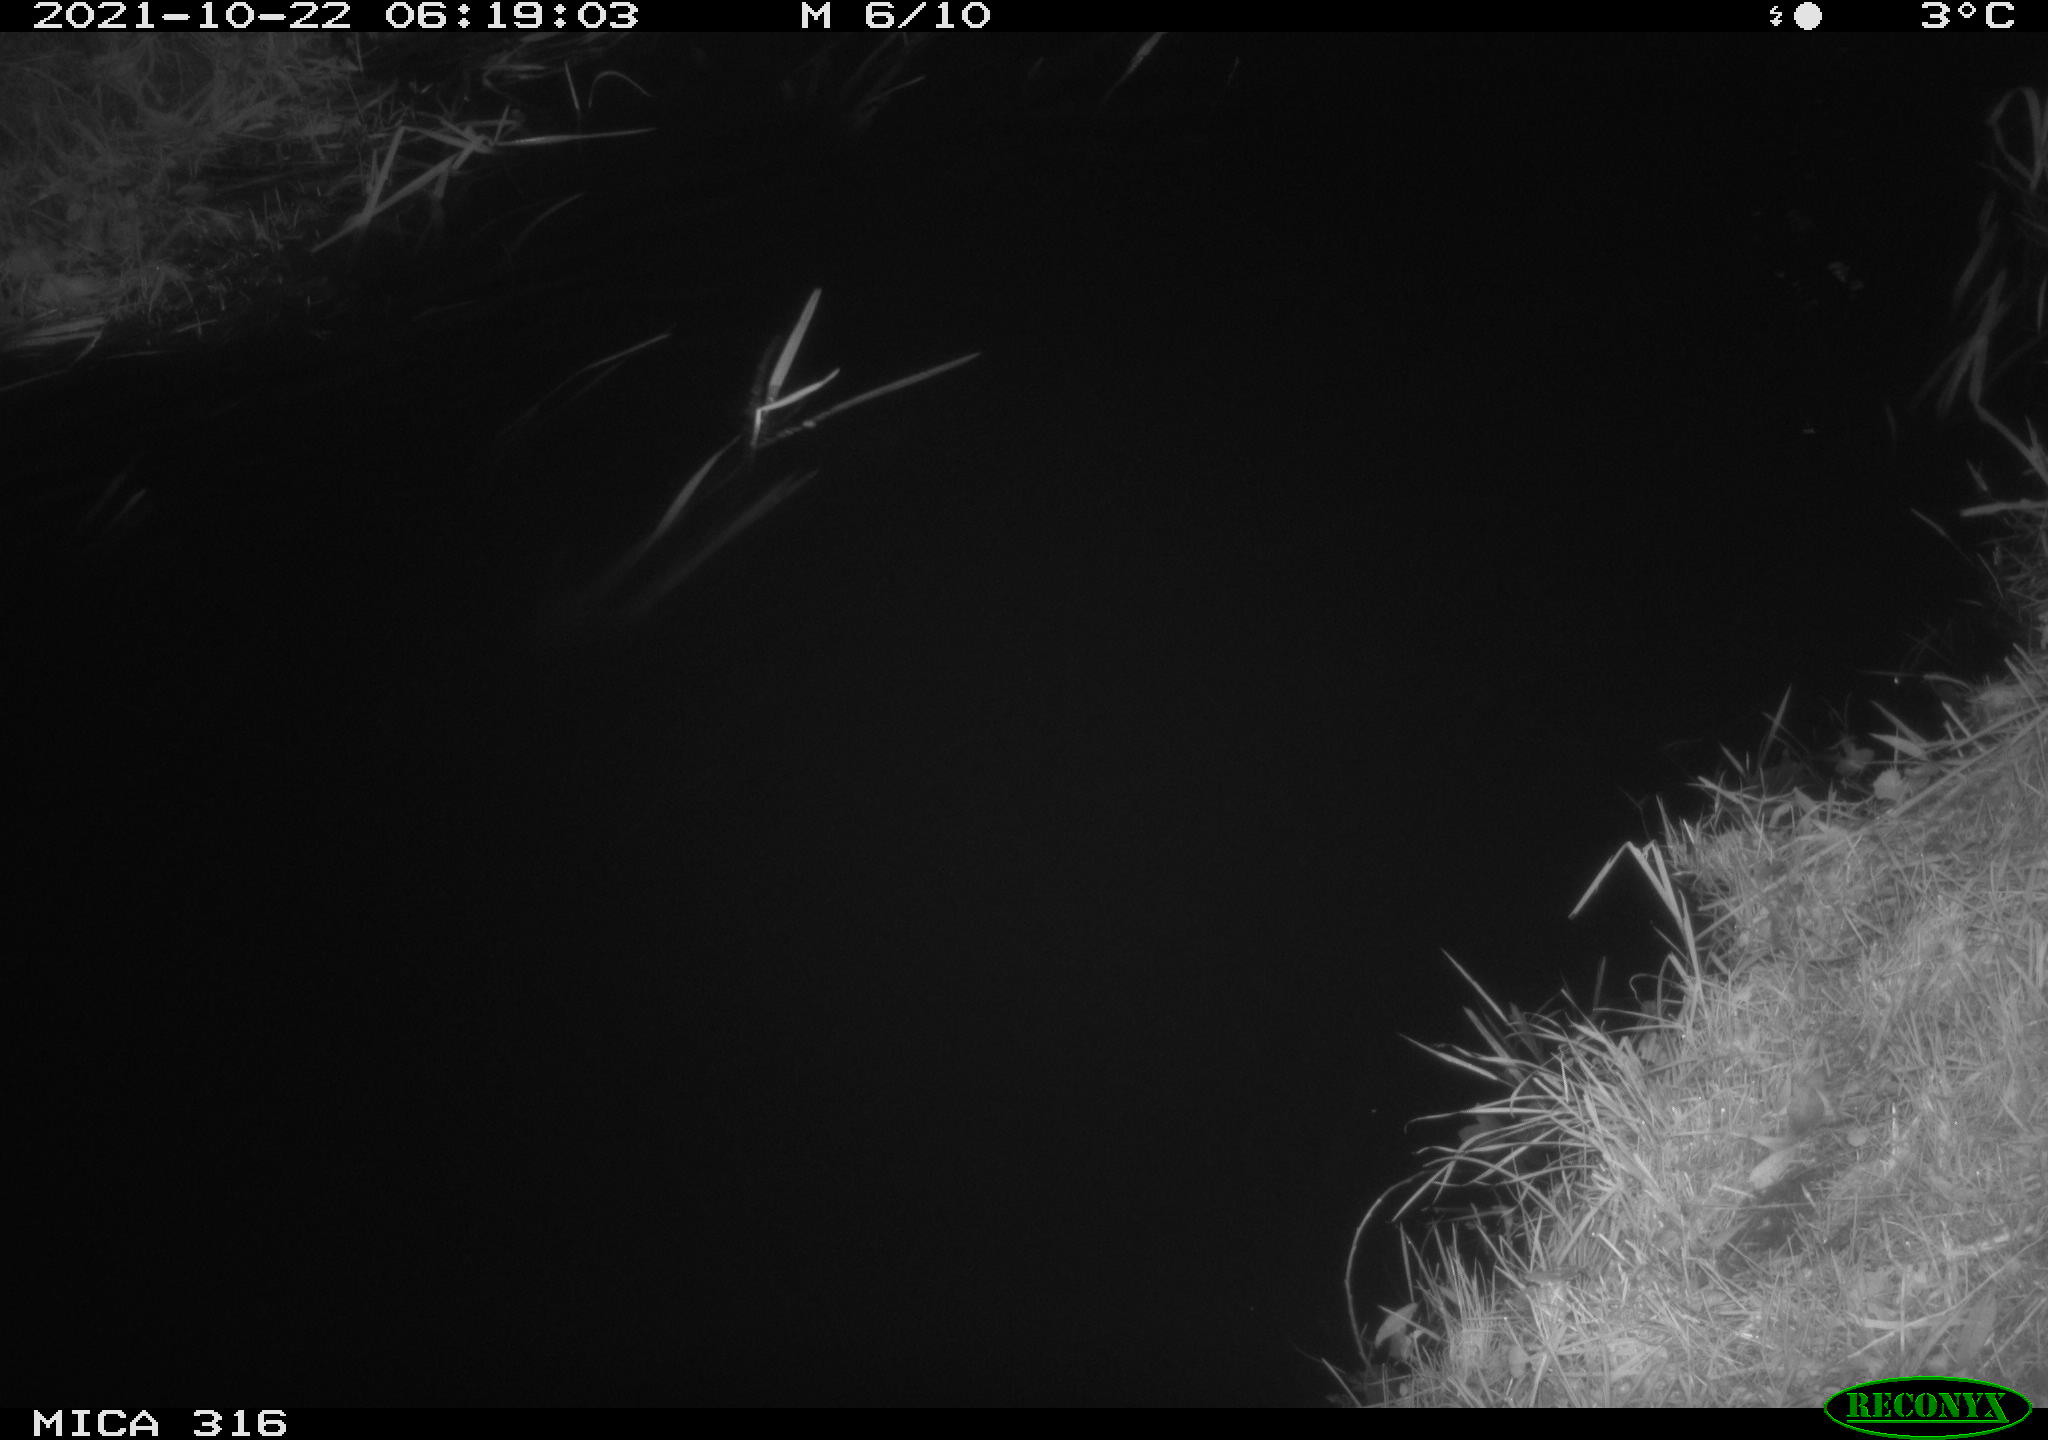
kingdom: Animalia
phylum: Chordata
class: Mammalia
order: Rodentia
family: Muridae
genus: Rattus
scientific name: Rattus norvegicus
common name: Brown rat
